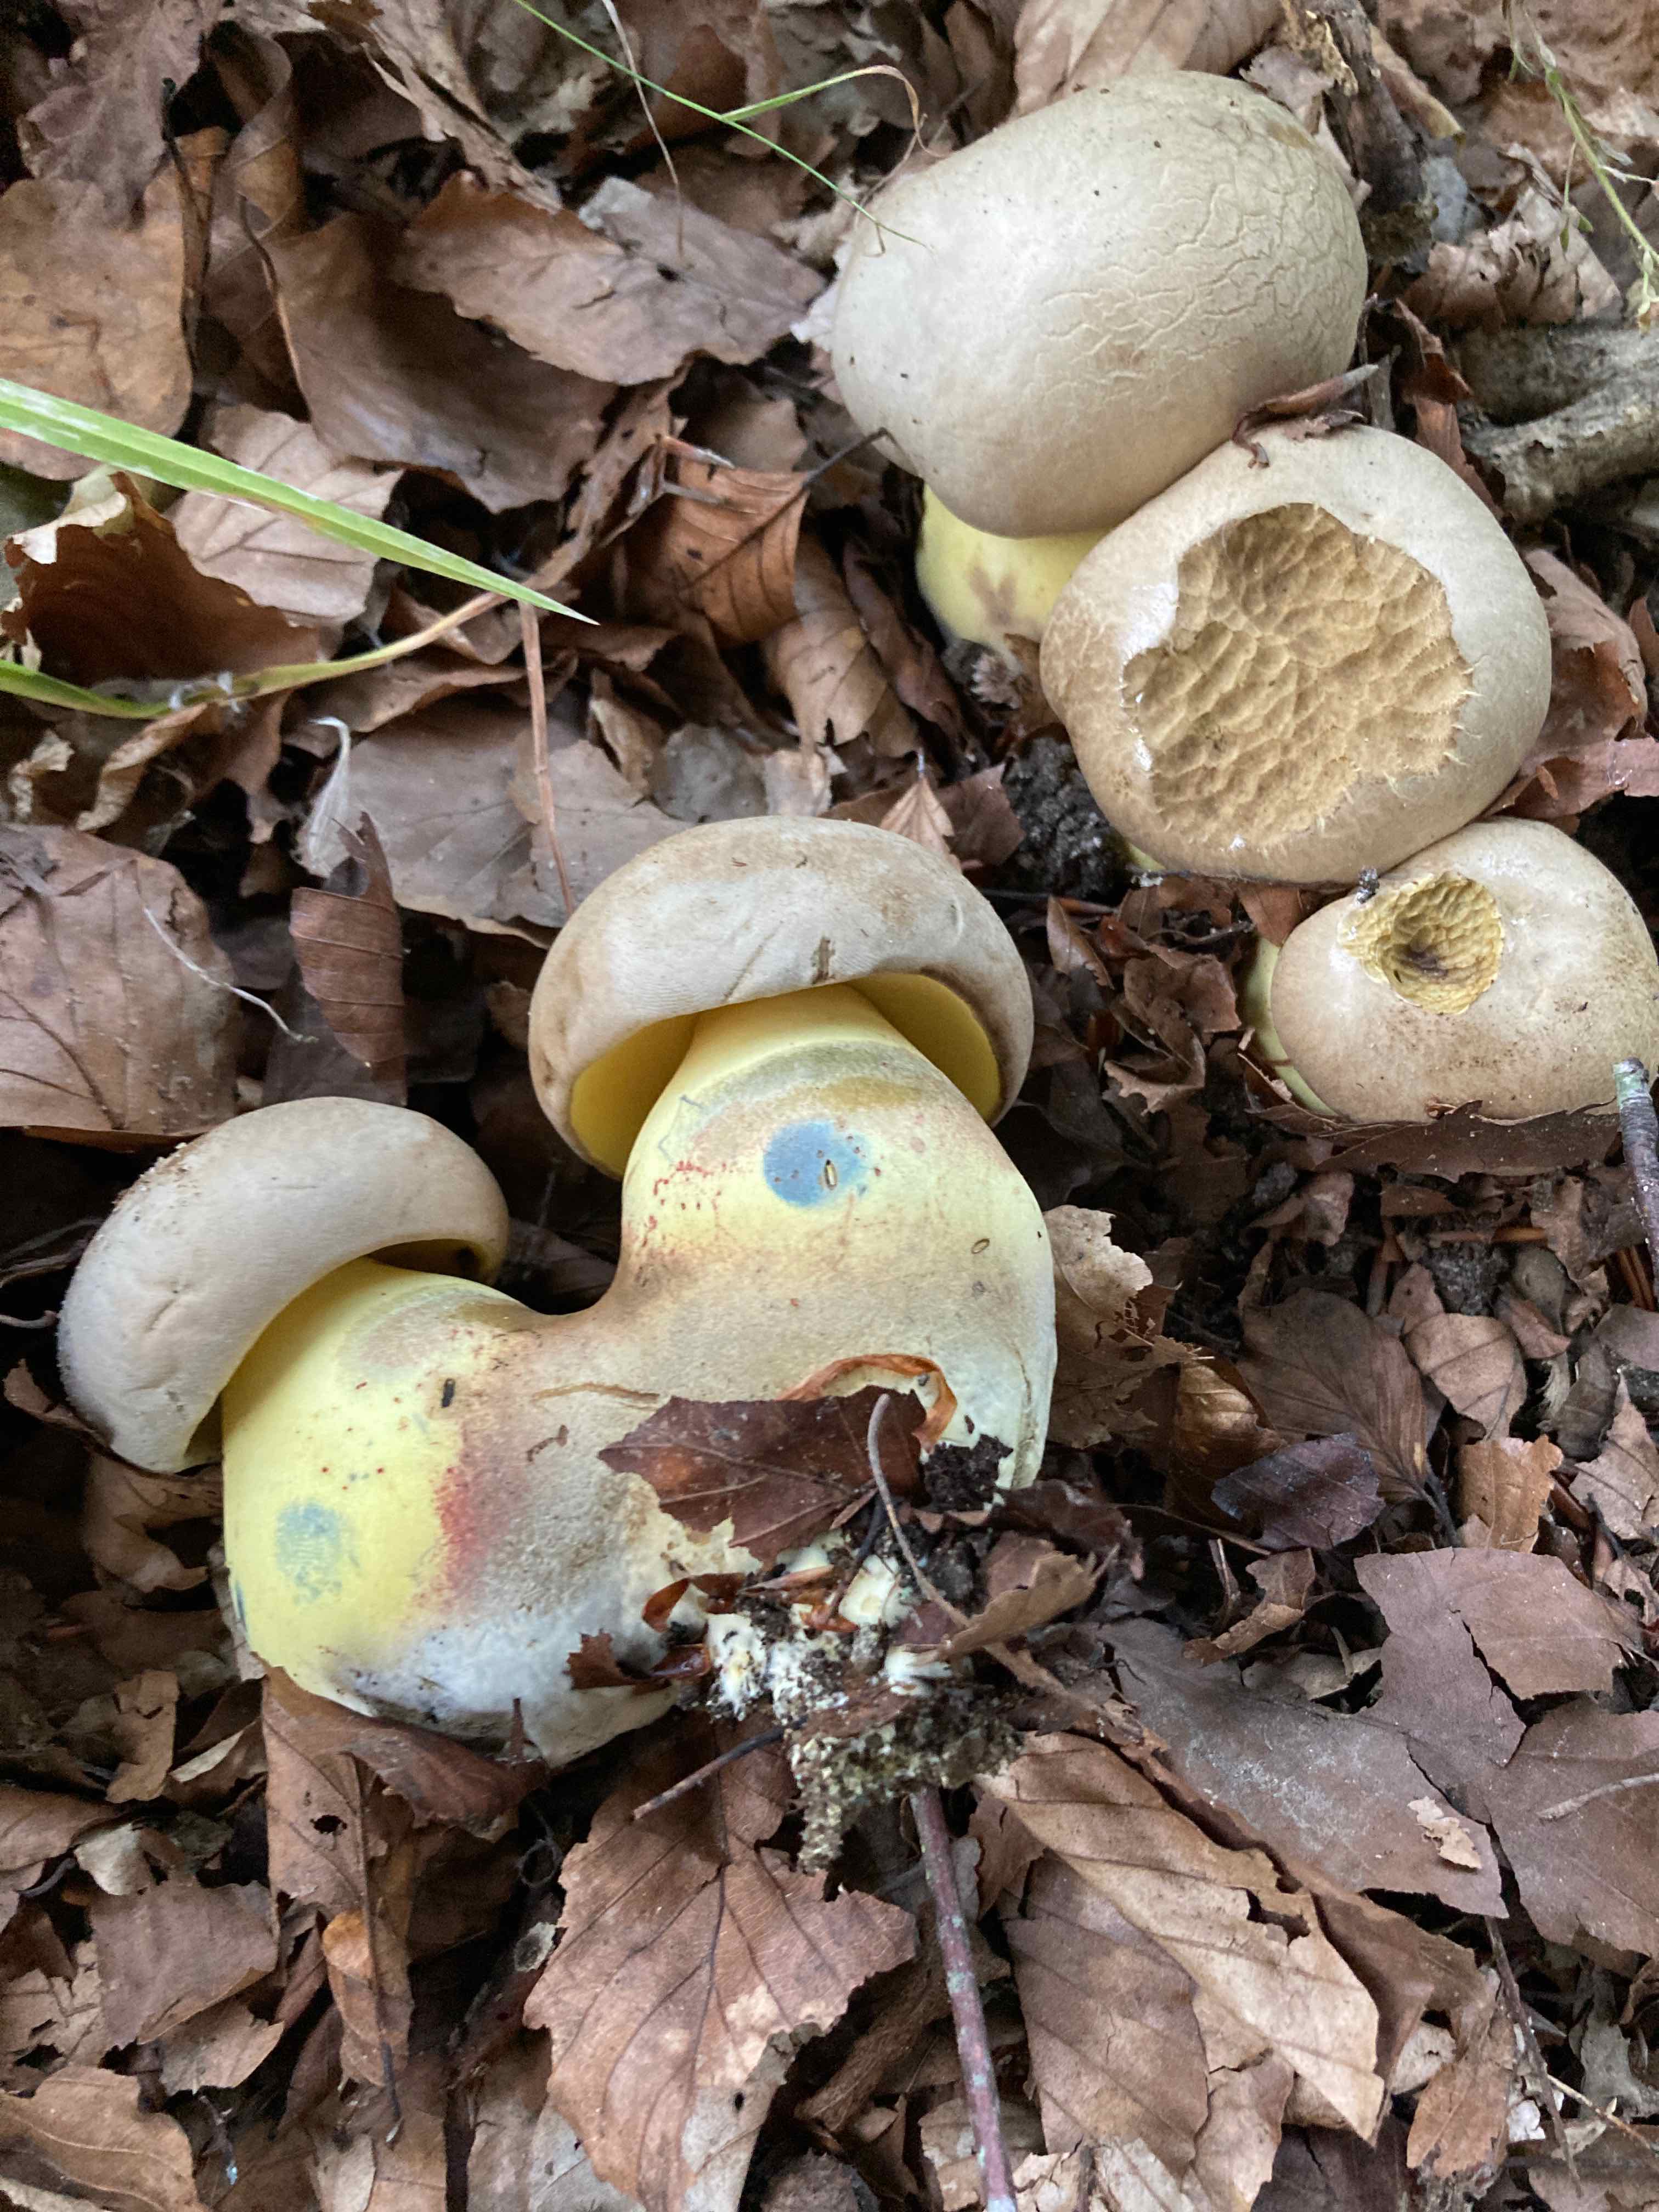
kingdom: Fungi
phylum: Basidiomycota
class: Agaricomycetes
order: Boletales
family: Boletaceae
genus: Caloboletus
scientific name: Caloboletus radicans
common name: rod-rørhat
